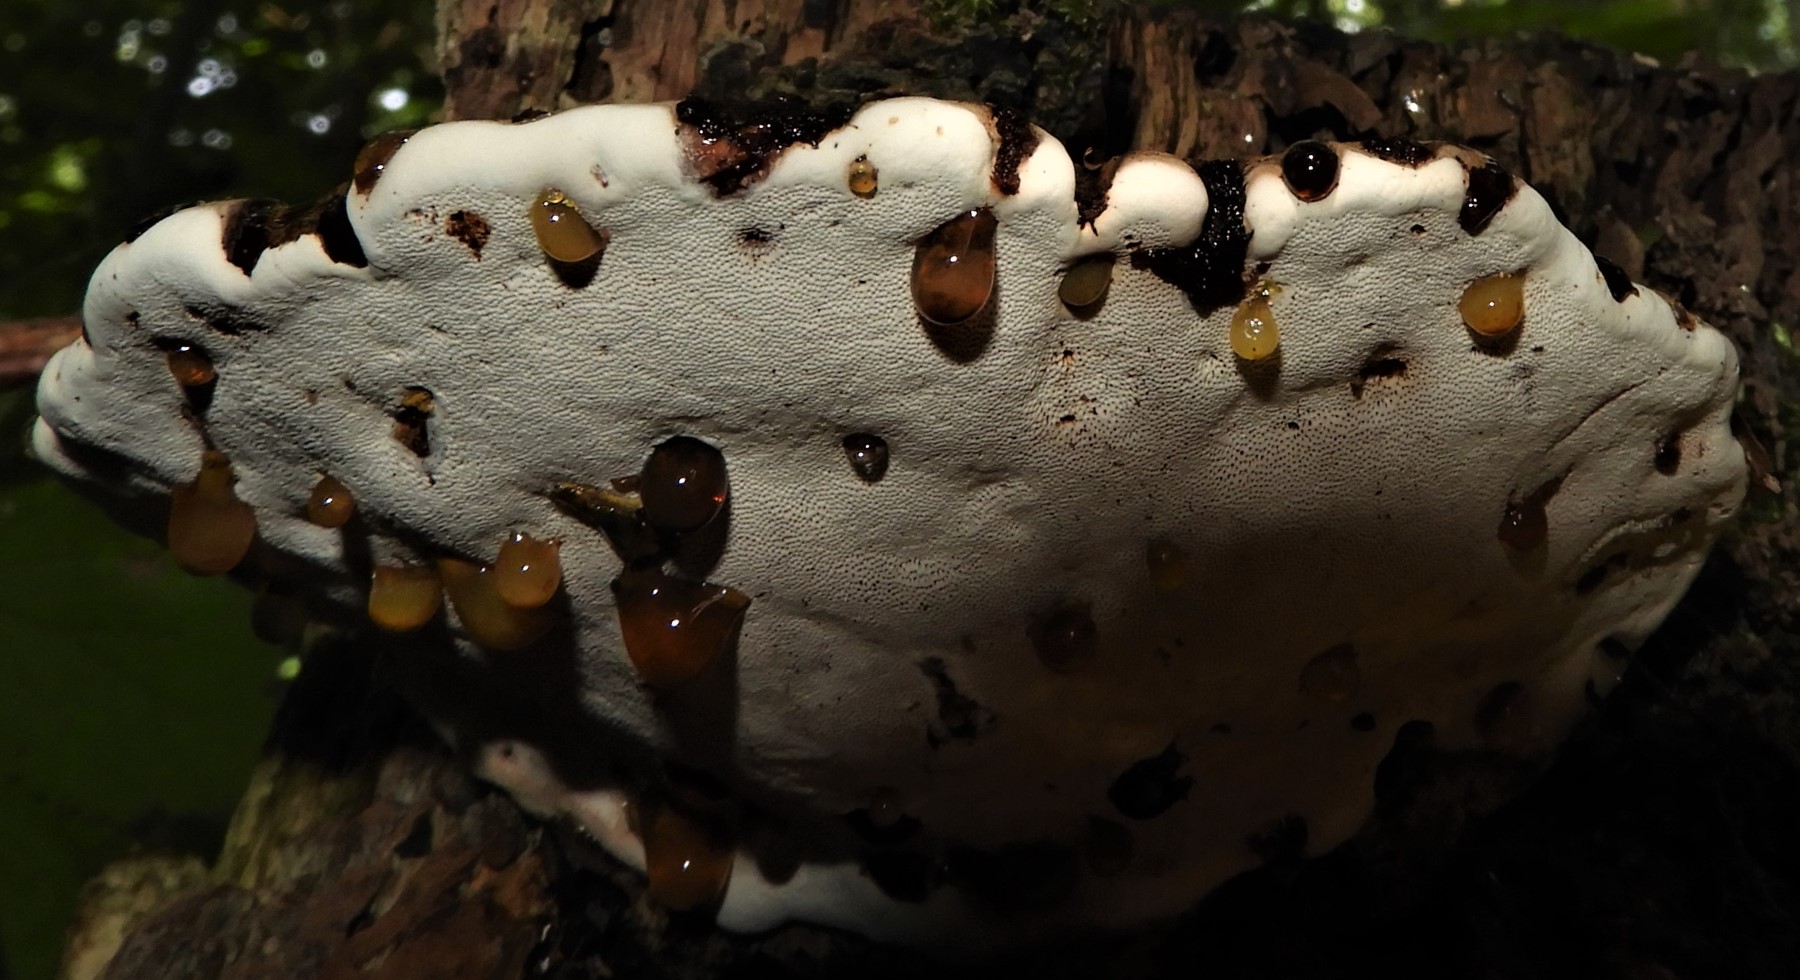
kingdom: Fungi
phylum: Basidiomycota
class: Agaricomycetes
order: Polyporales
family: Polyporaceae
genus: Ganoderma
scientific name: Ganoderma applanatum
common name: flad lakporesvamp
